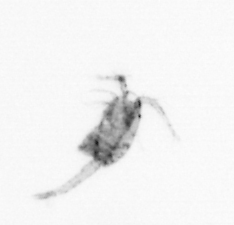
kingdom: Animalia
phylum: Arthropoda
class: Copepoda
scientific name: Copepoda
